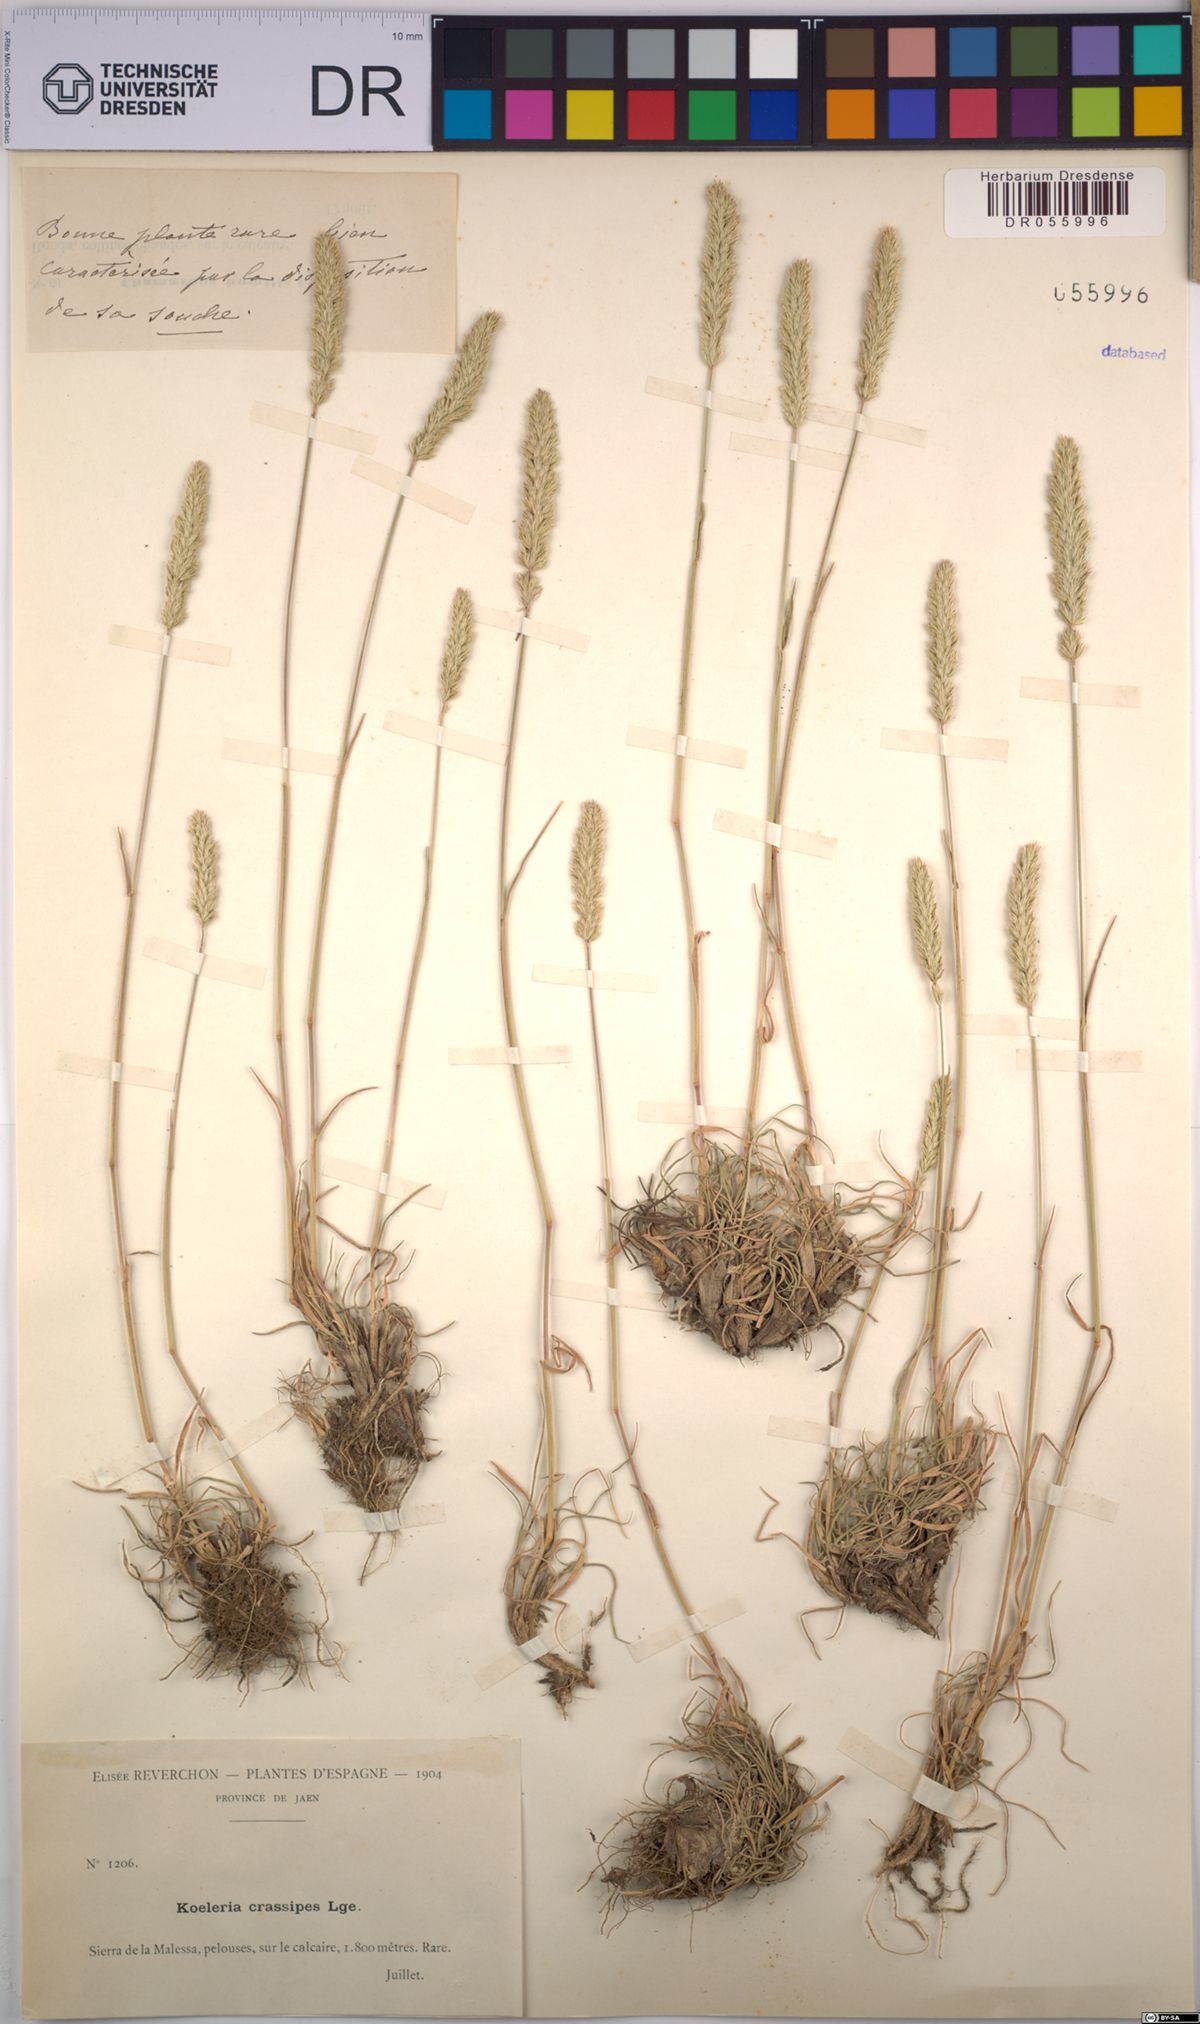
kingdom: Plantae
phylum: Tracheophyta
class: Liliopsida
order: Poales
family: Poaceae
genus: Koeleria
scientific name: Koeleria crassipes
